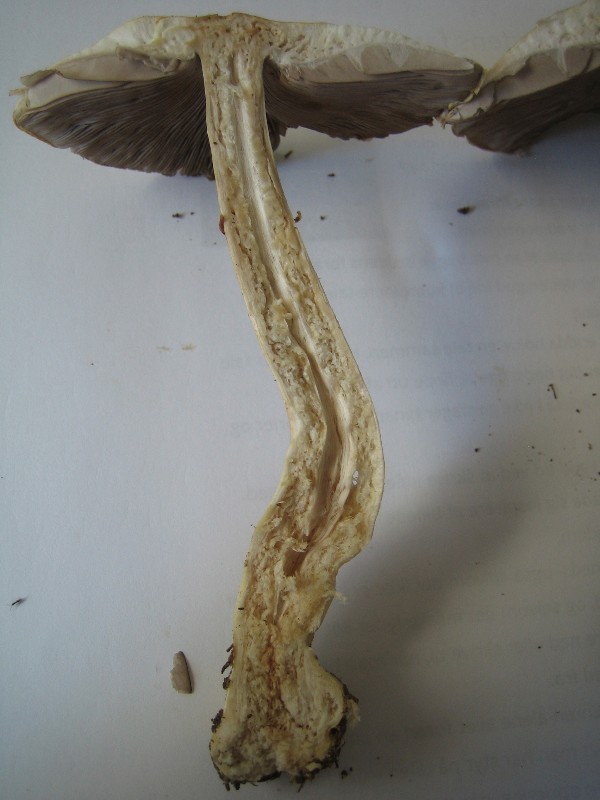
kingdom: Fungi
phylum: Basidiomycota
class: Agaricomycetes
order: Agaricales
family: Agaricaceae
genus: Agaricus
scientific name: Agaricus sylvicola
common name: skiveknoldet champignon
